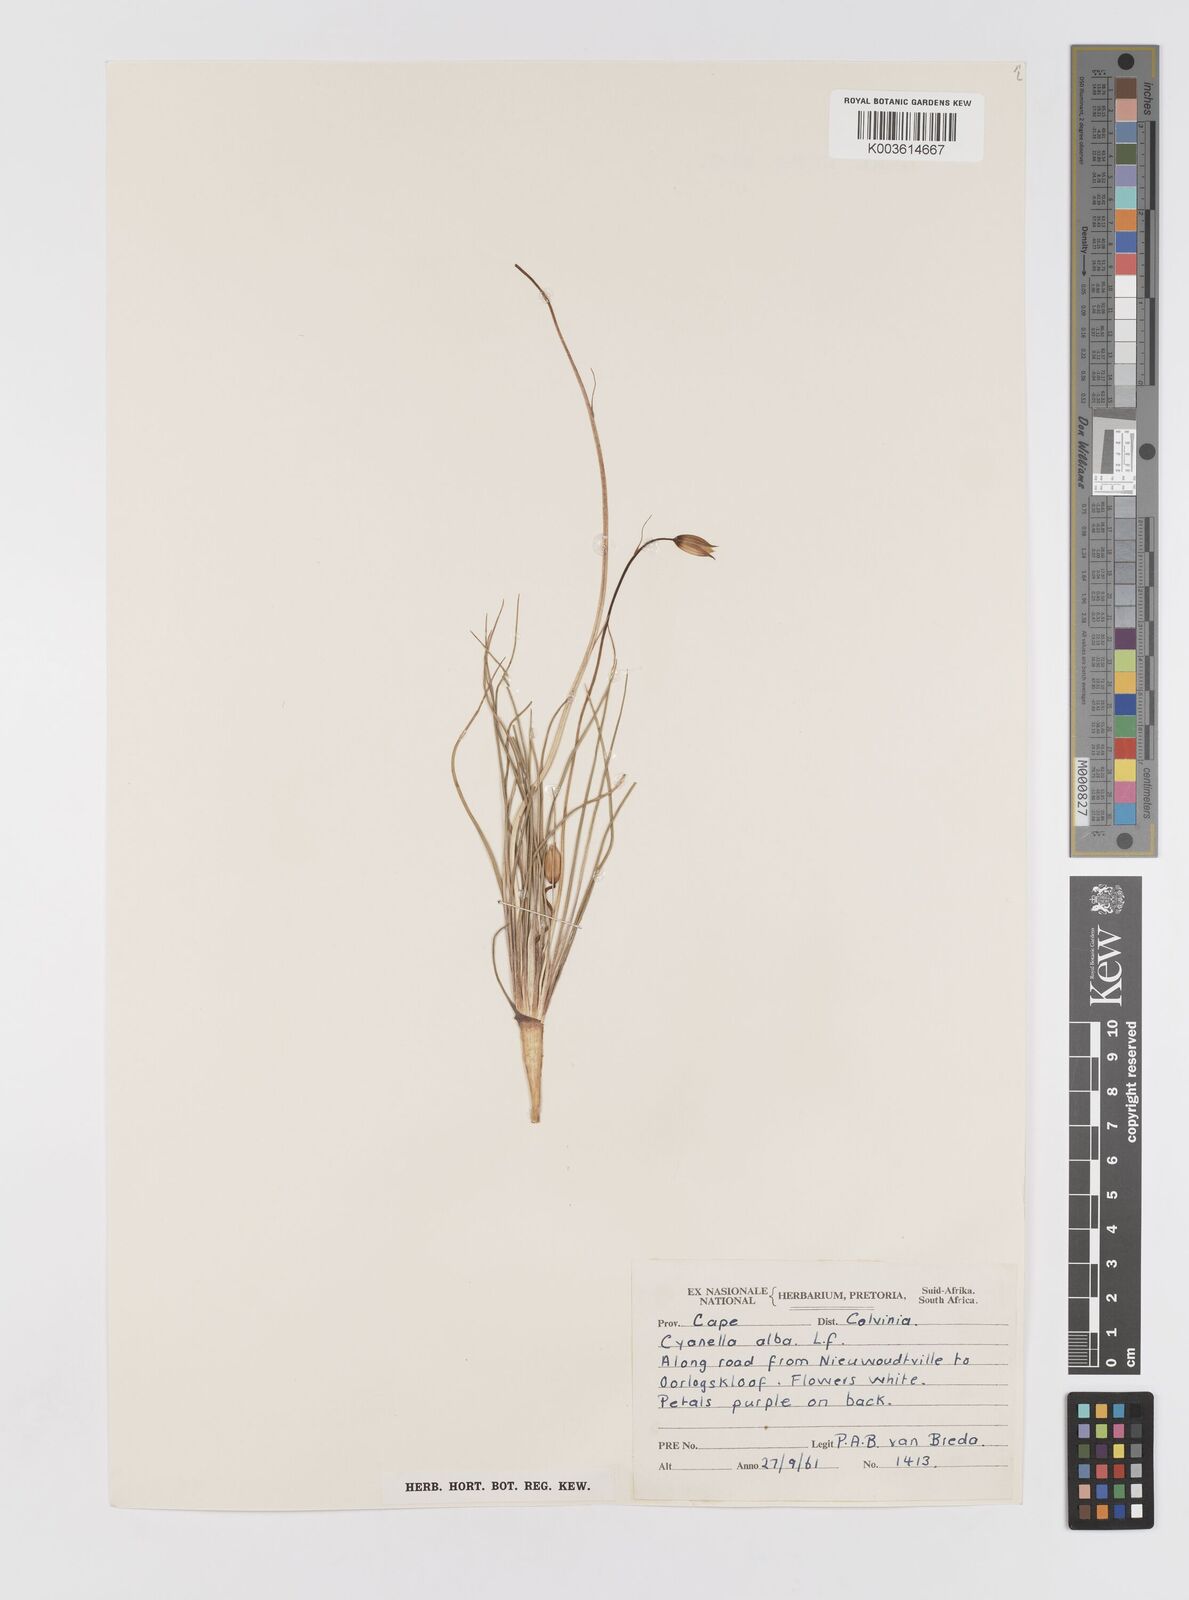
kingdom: Plantae
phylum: Tracheophyta
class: Liliopsida
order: Asparagales
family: Tecophilaeaceae
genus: Cyanella
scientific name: Cyanella alba
